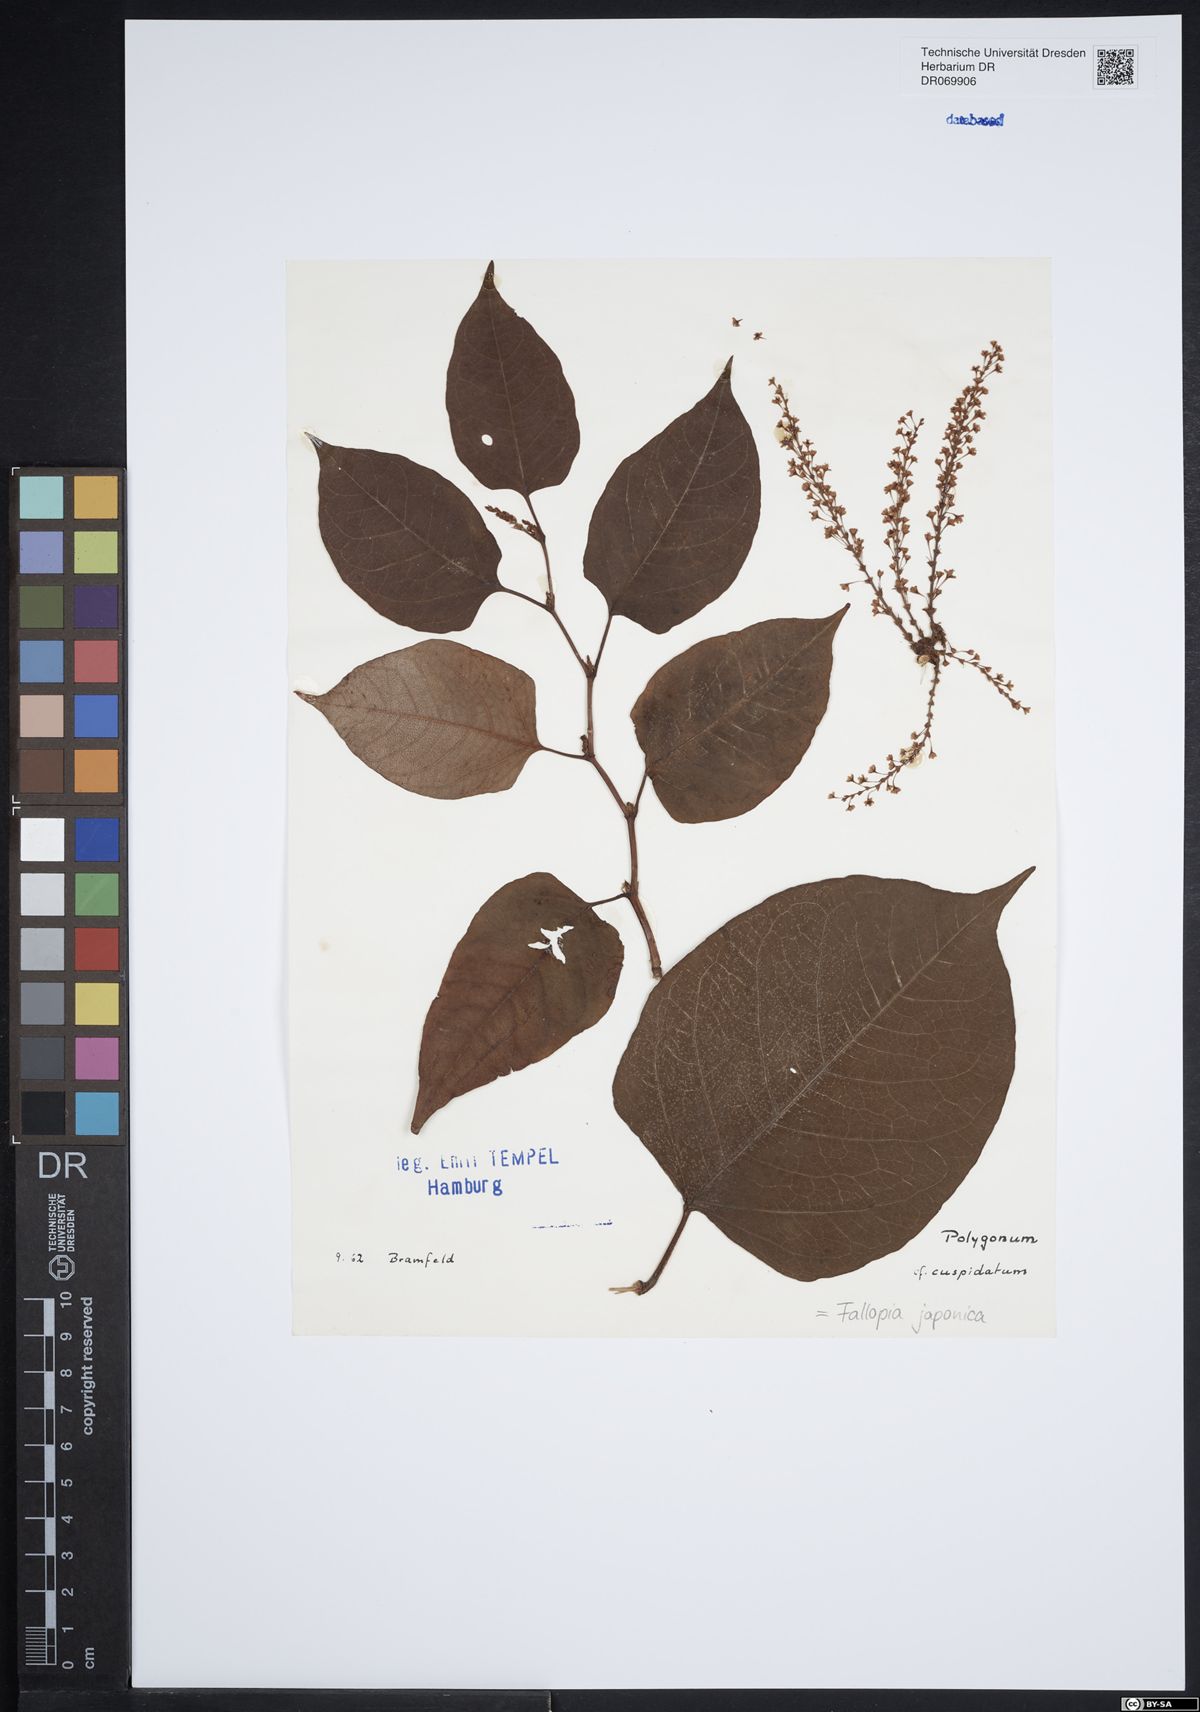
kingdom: Plantae
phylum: Tracheophyta
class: Magnoliopsida
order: Caryophyllales
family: Polygonaceae
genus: Reynoutria
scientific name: Reynoutria japonica
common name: Japanese knotweed
